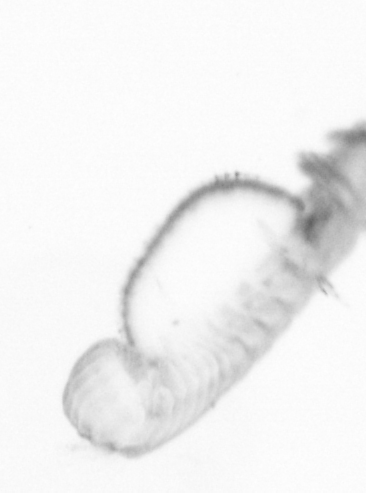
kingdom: Animalia
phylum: Annelida
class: Polychaeta
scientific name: Polychaeta
